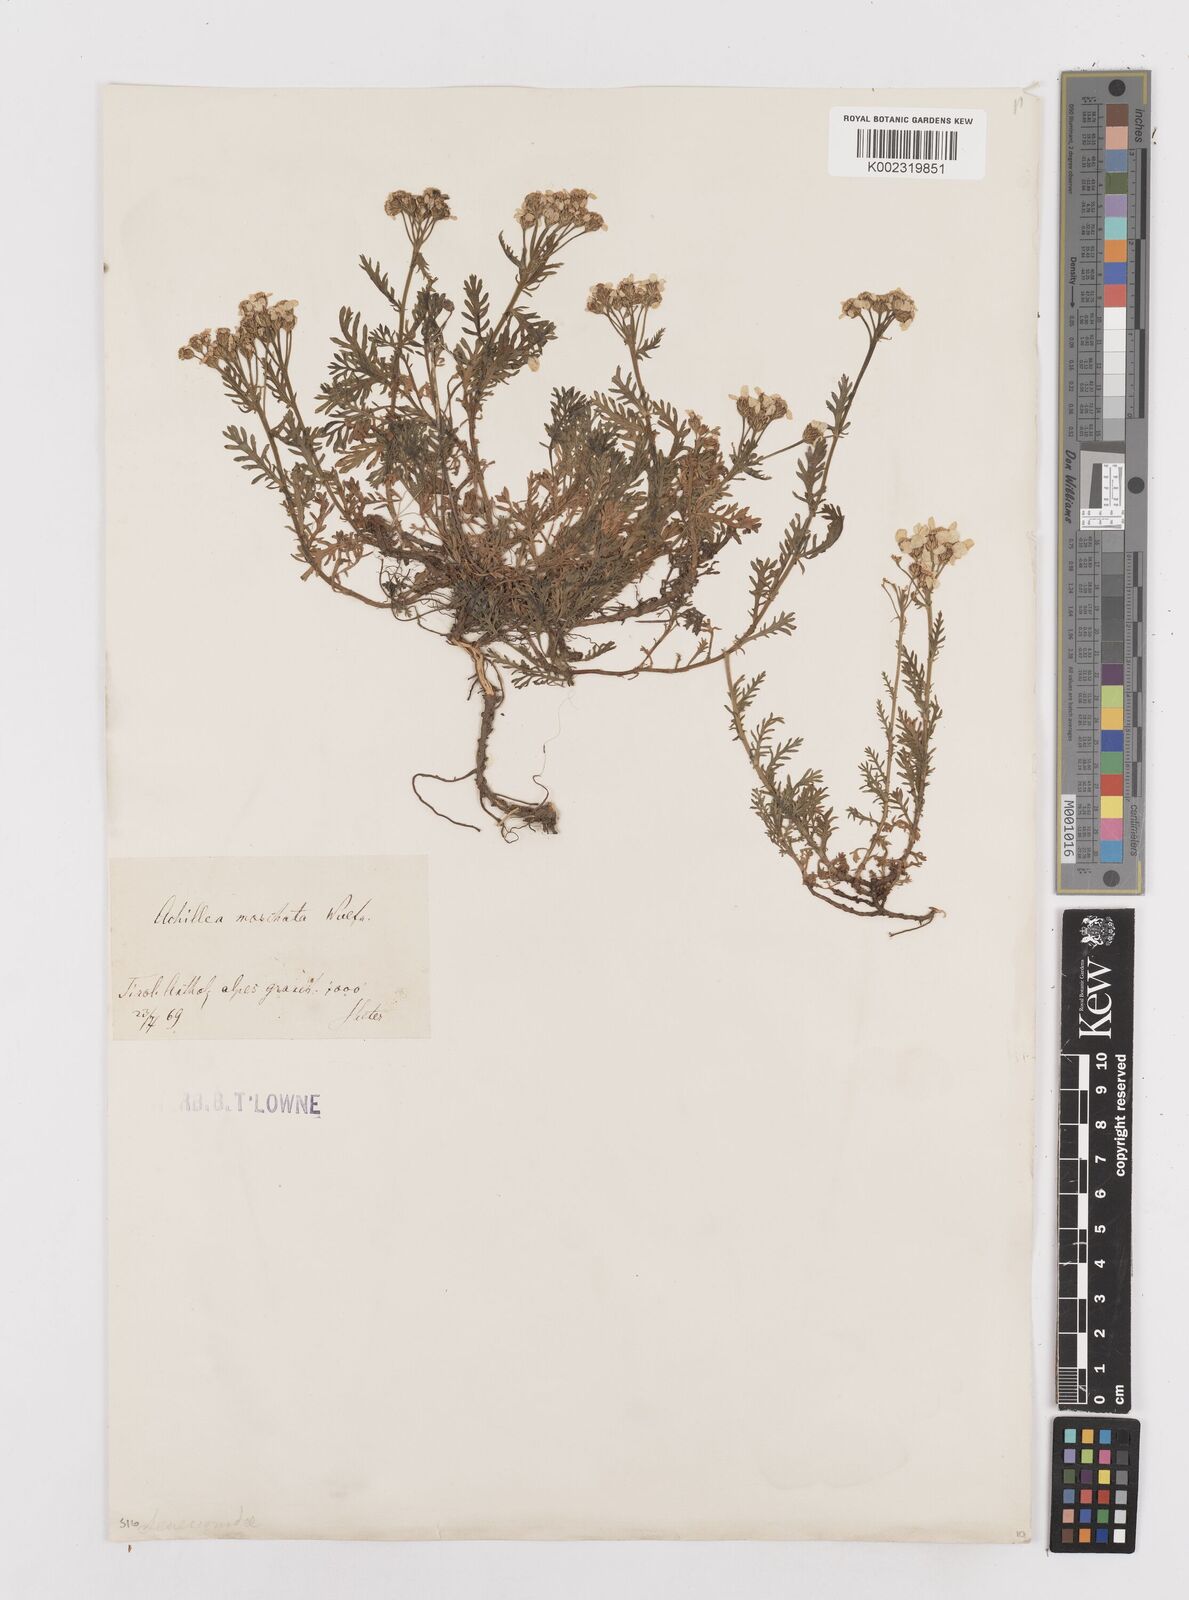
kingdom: Plantae
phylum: Tracheophyta
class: Magnoliopsida
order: Asterales
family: Asteraceae
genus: Achillea
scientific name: Achillea erba-rotta
